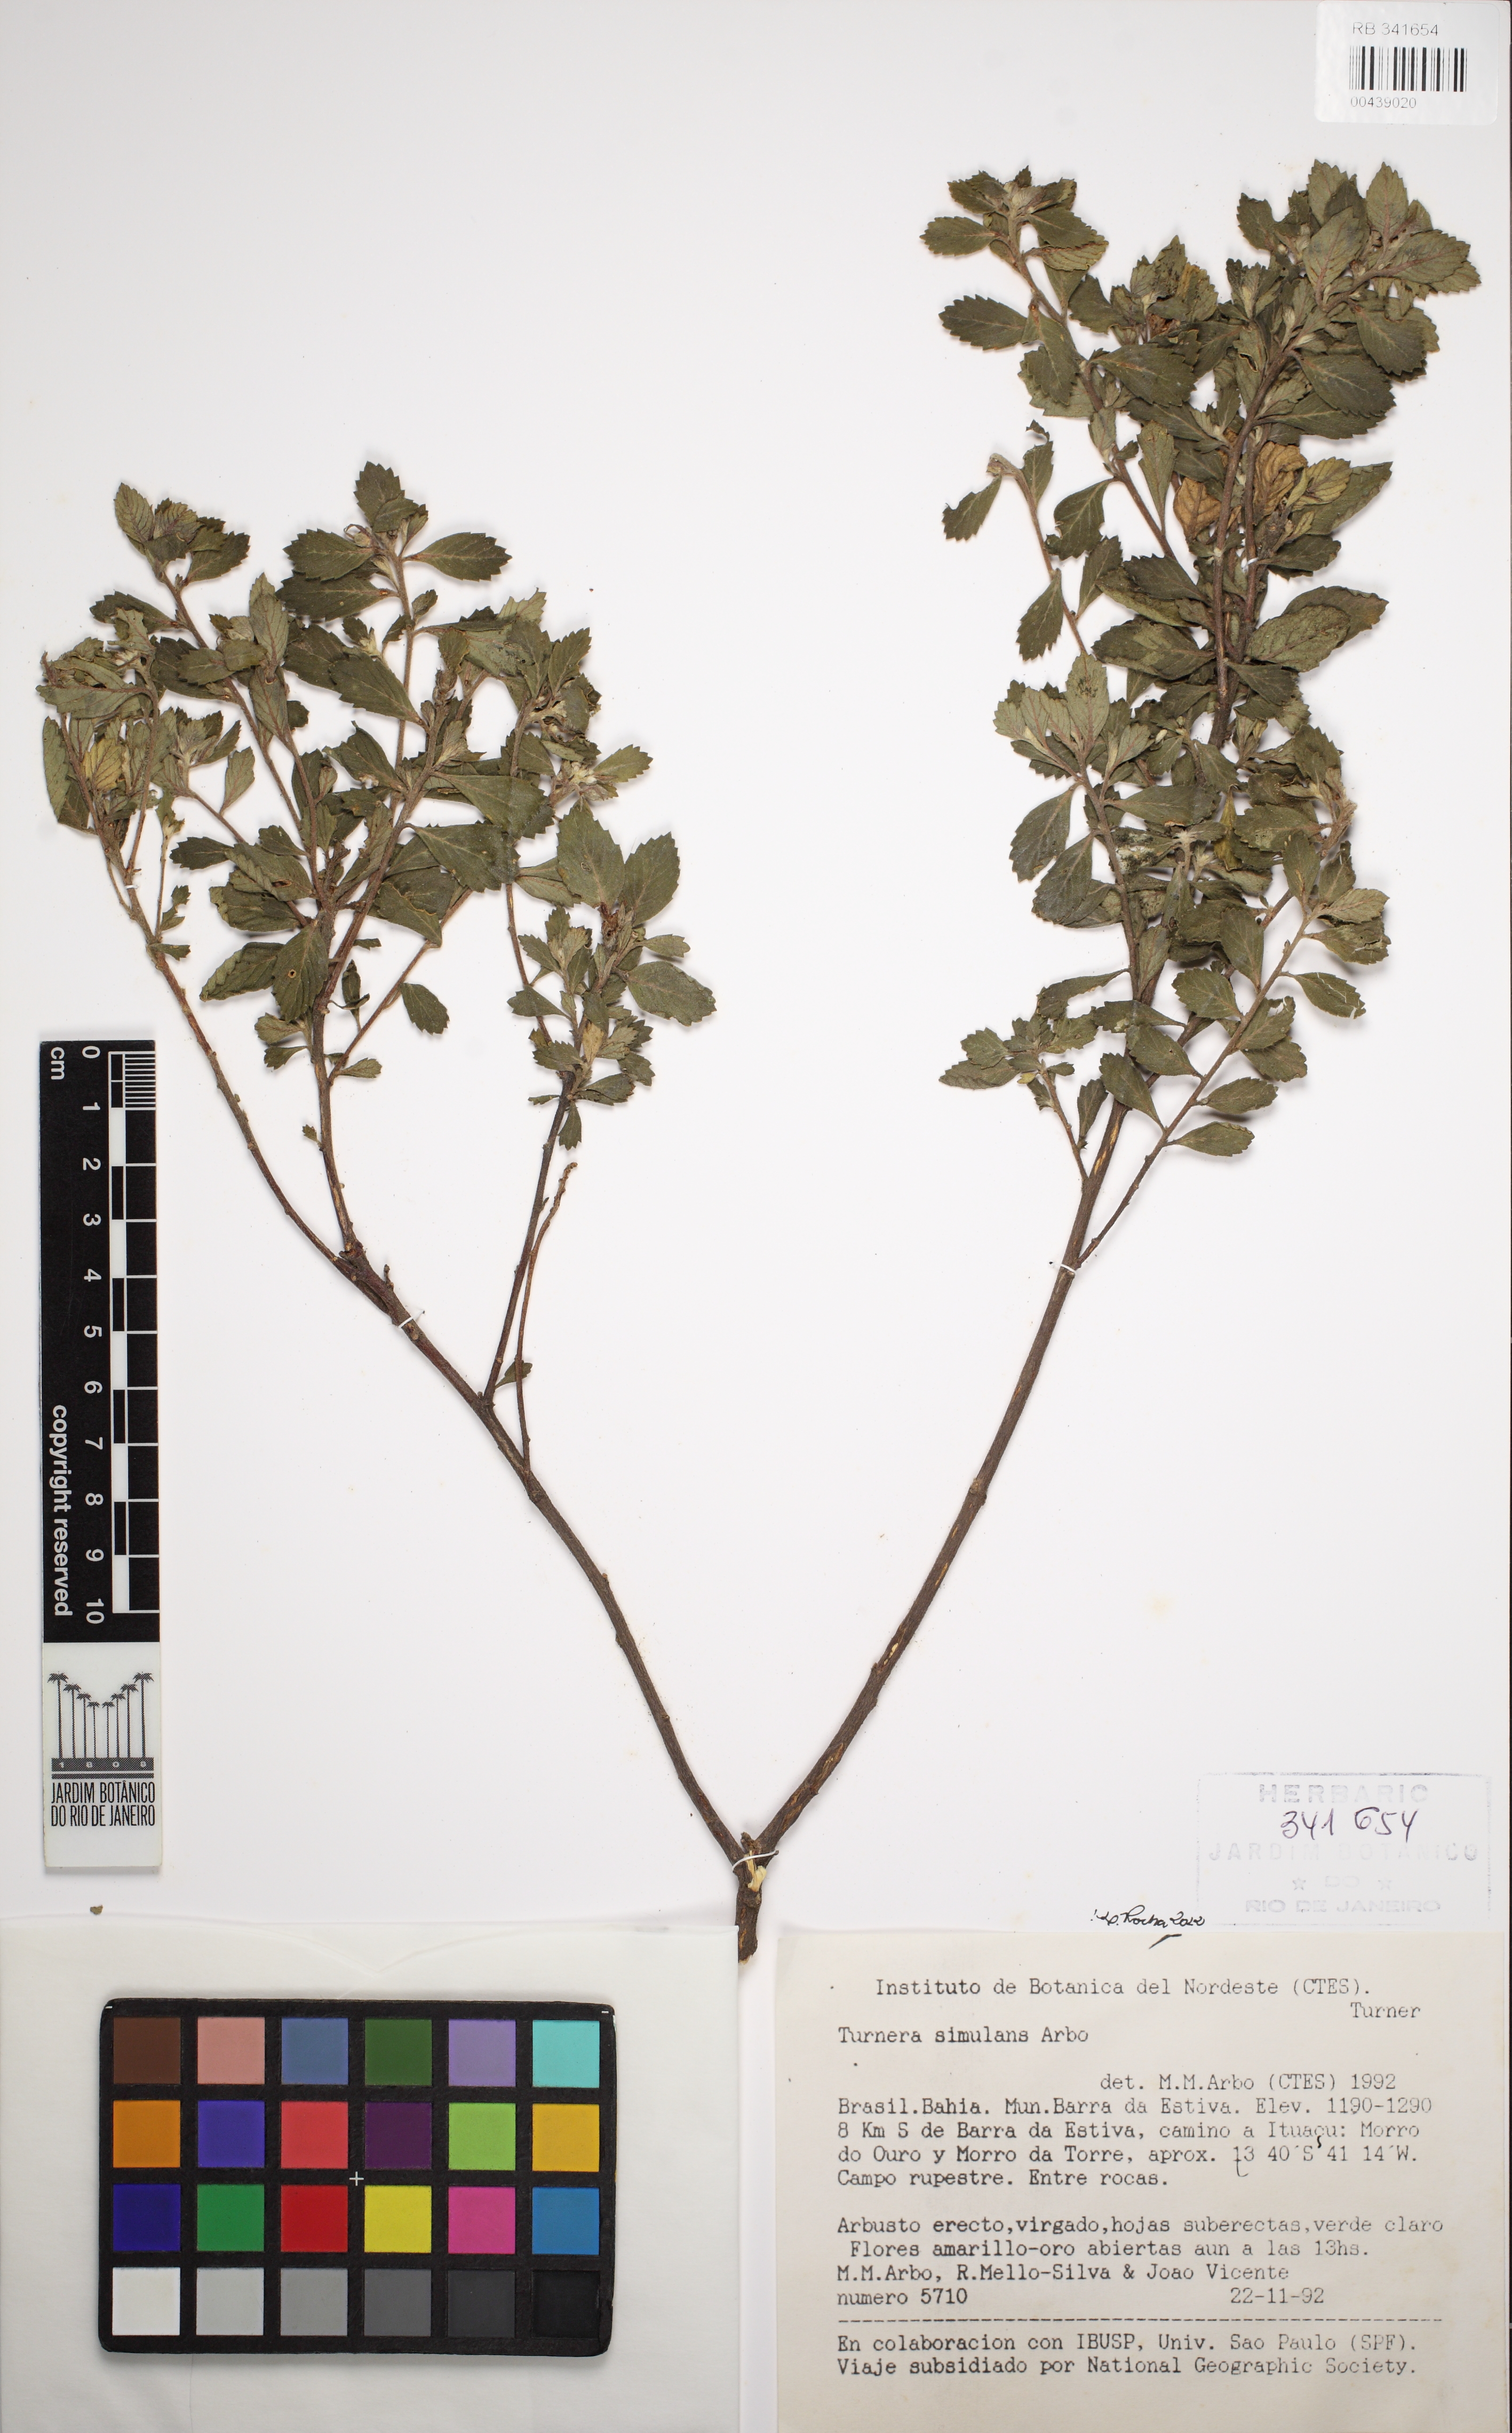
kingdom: Plantae
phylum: Tracheophyta
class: Magnoliopsida
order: Malpighiales
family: Turneraceae
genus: Turnera
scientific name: Turnera simulans
